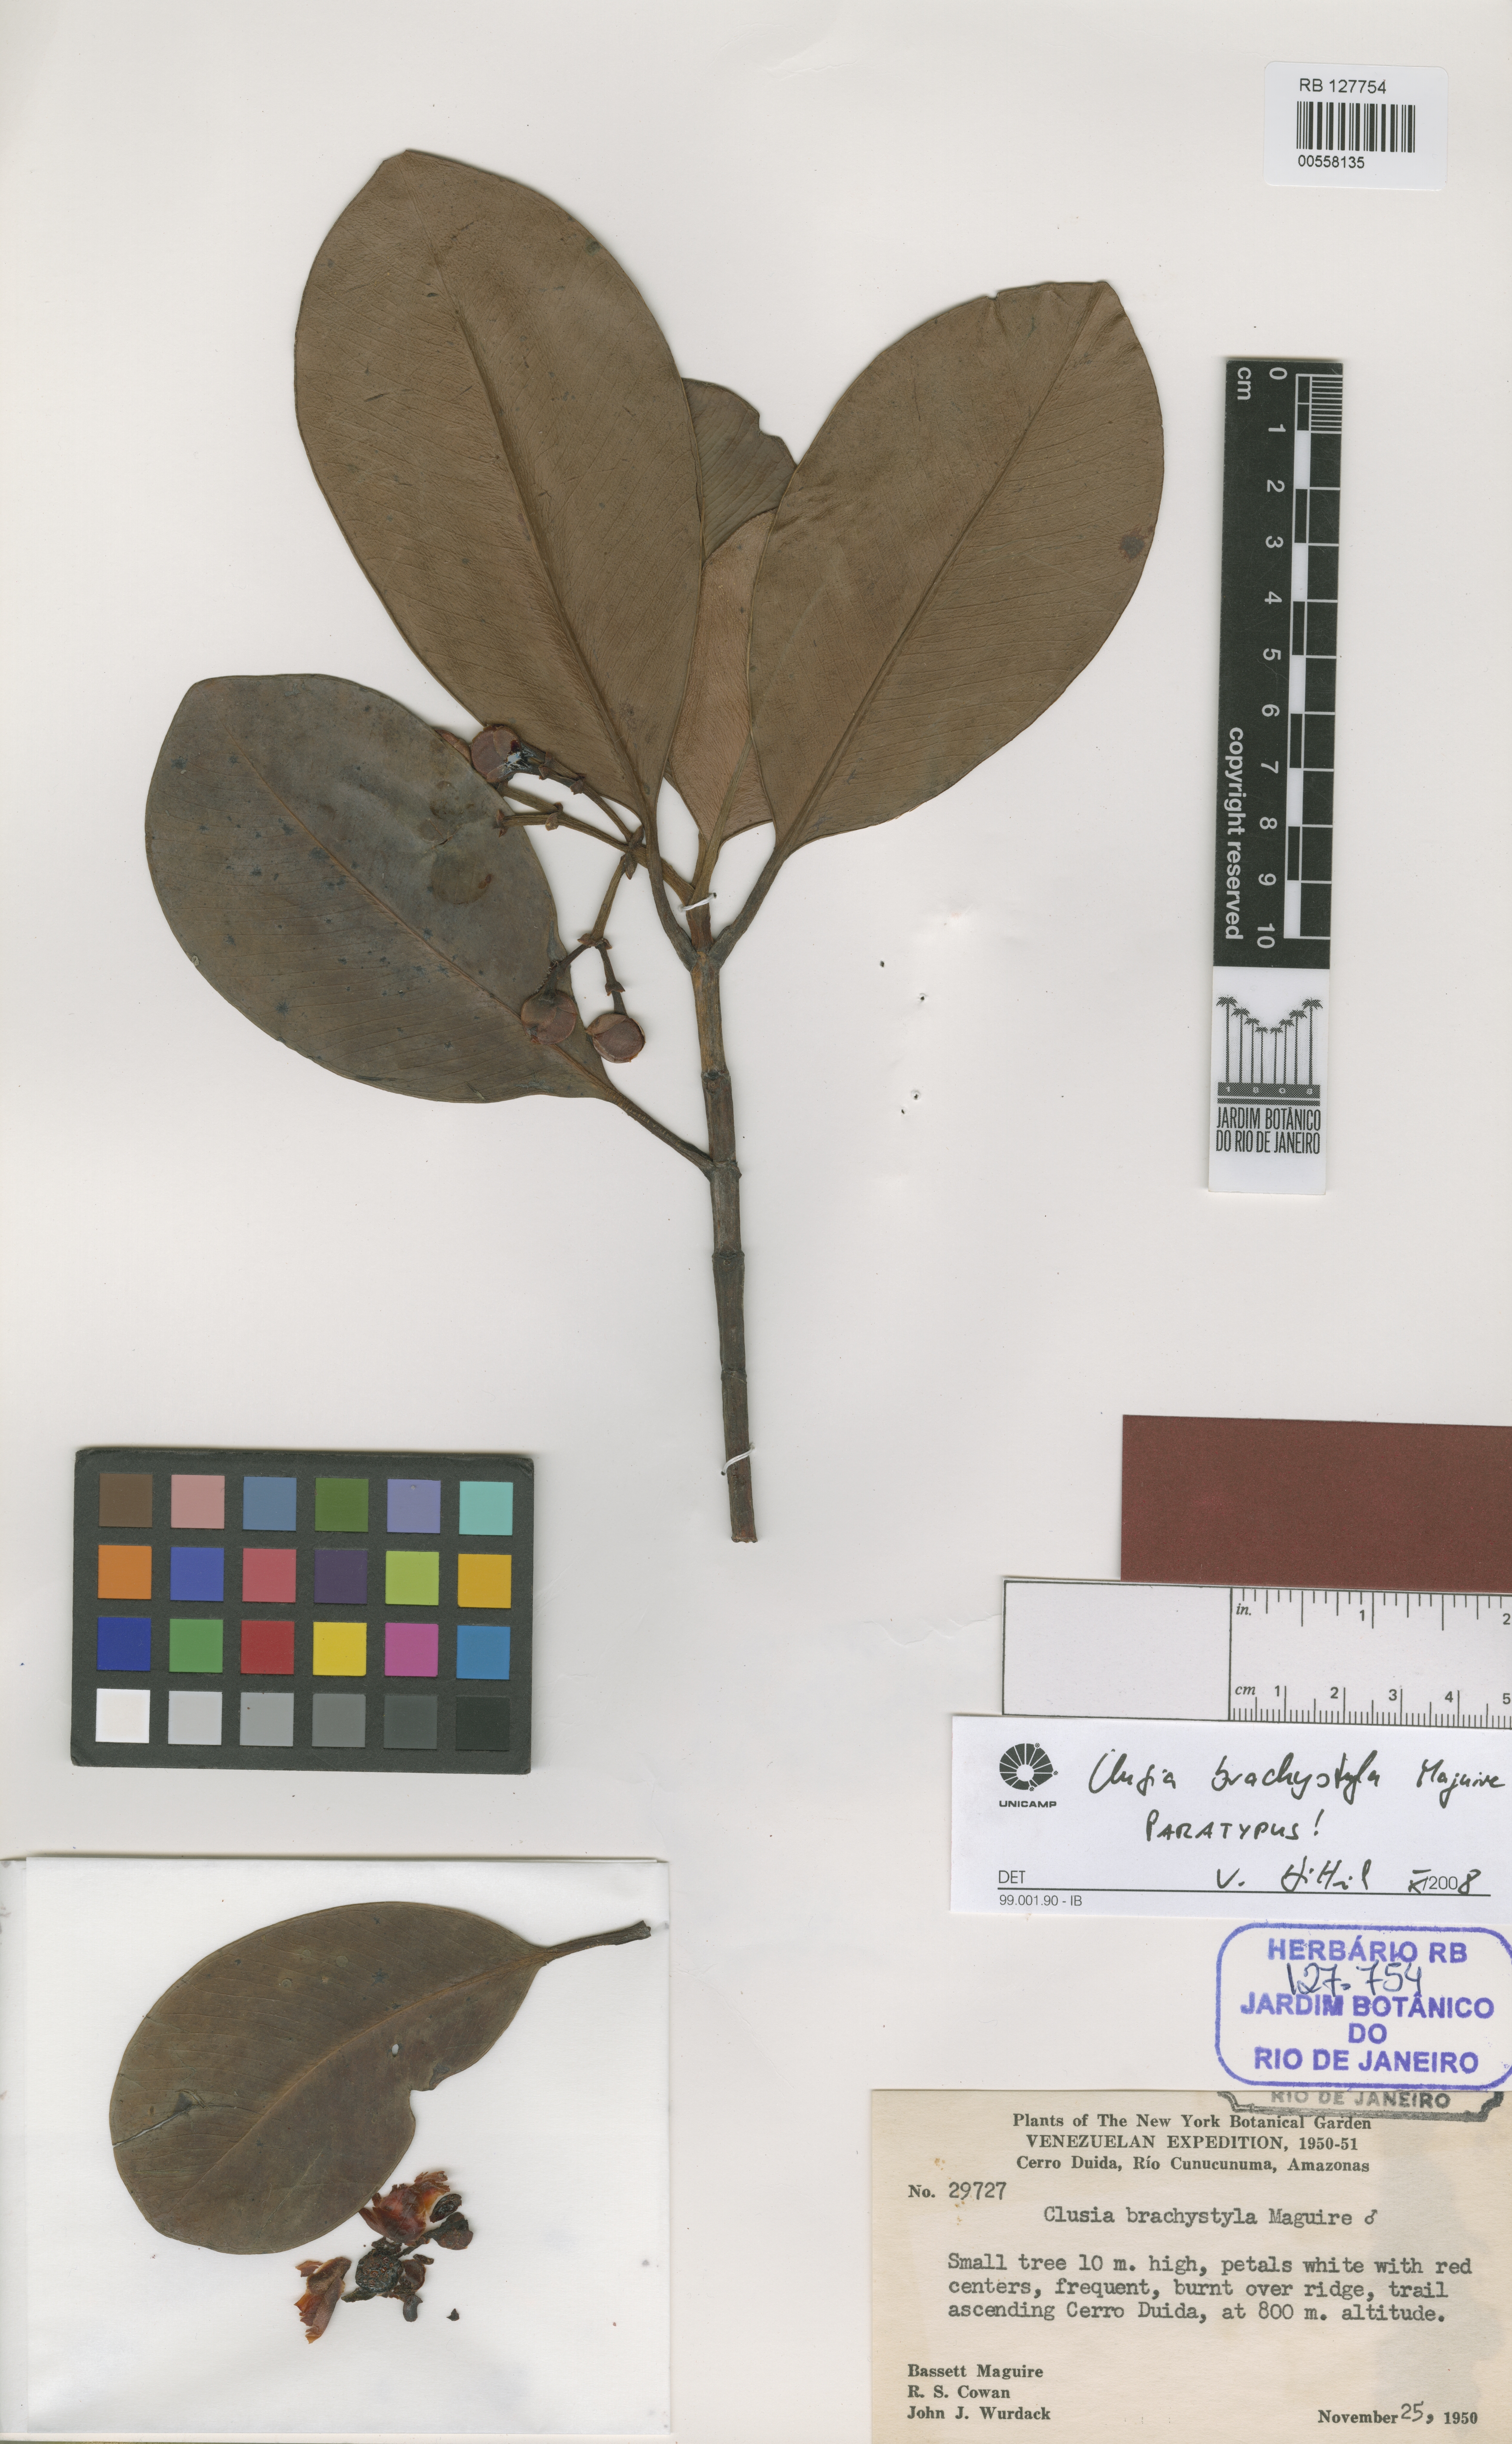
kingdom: Plantae
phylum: Tracheophyta
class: Magnoliopsida
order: Malpighiales
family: Clusiaceae
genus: Clusia
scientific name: Clusia brachystyla
